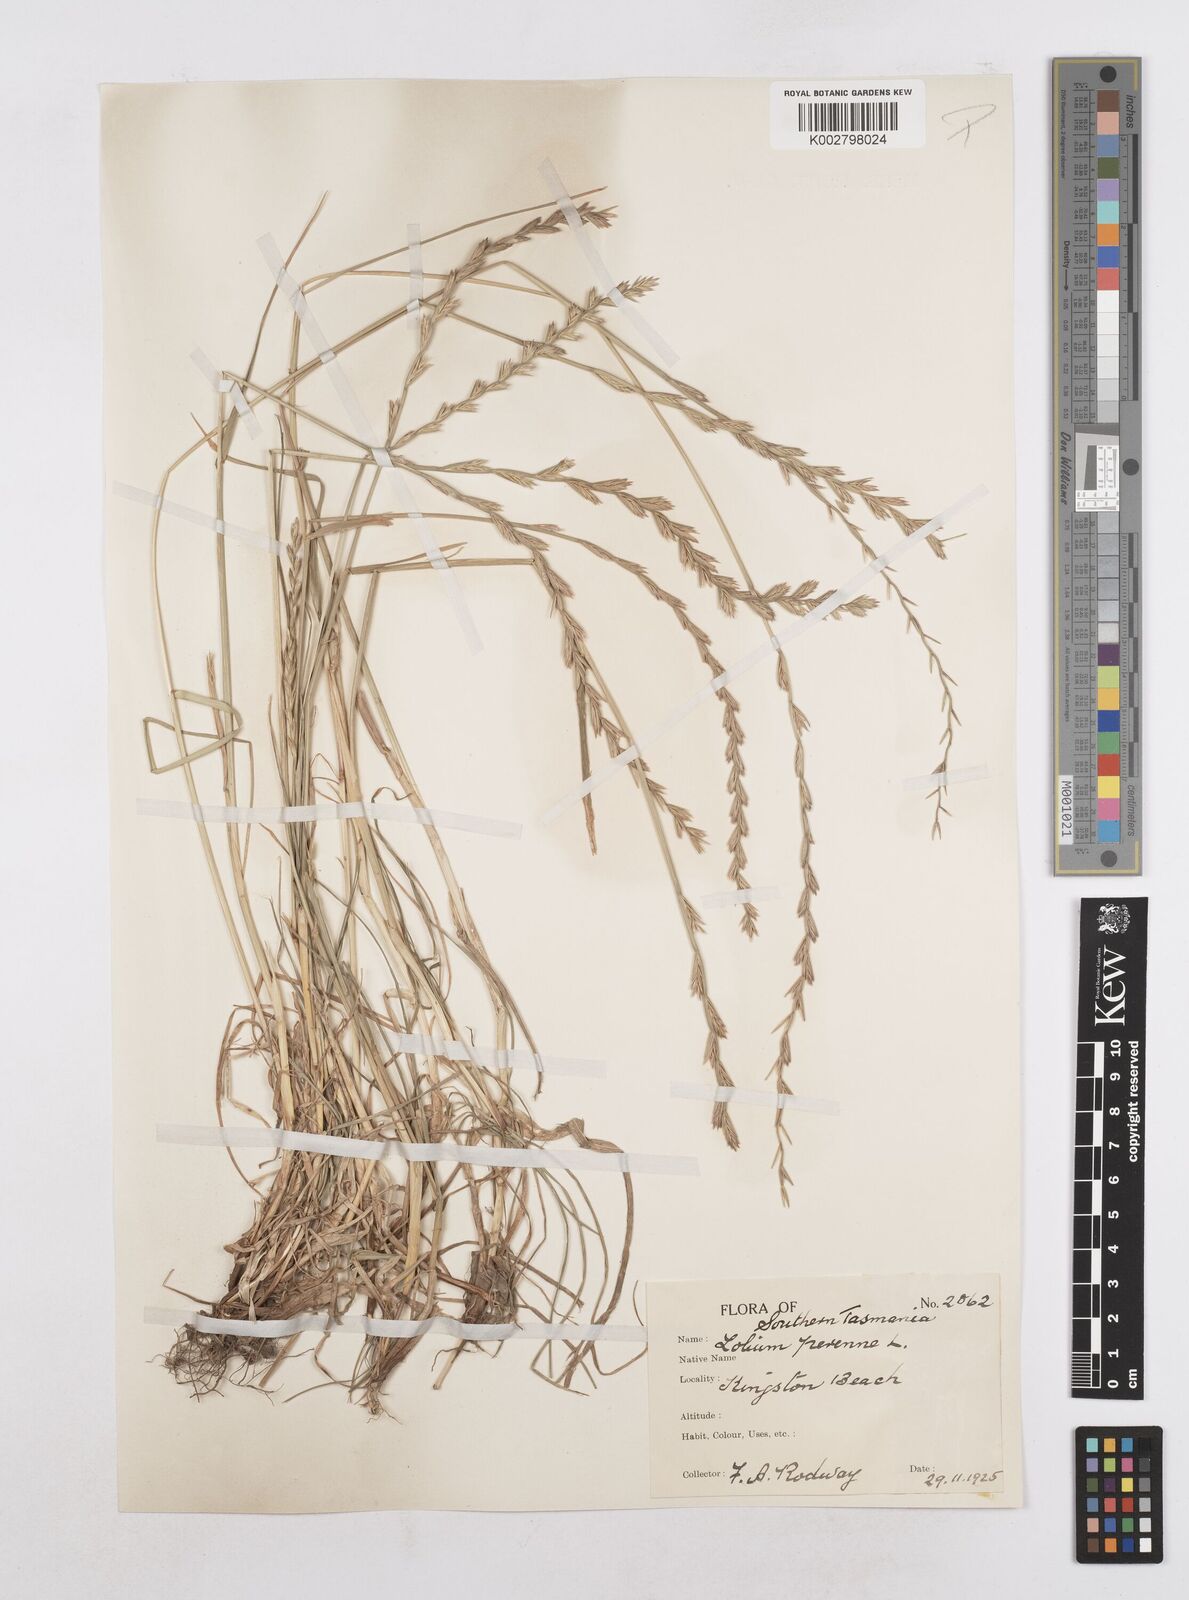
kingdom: Plantae
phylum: Tracheophyta
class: Liliopsida
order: Poales
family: Poaceae
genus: Lolium
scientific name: Lolium perenne
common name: Perennial ryegrass
